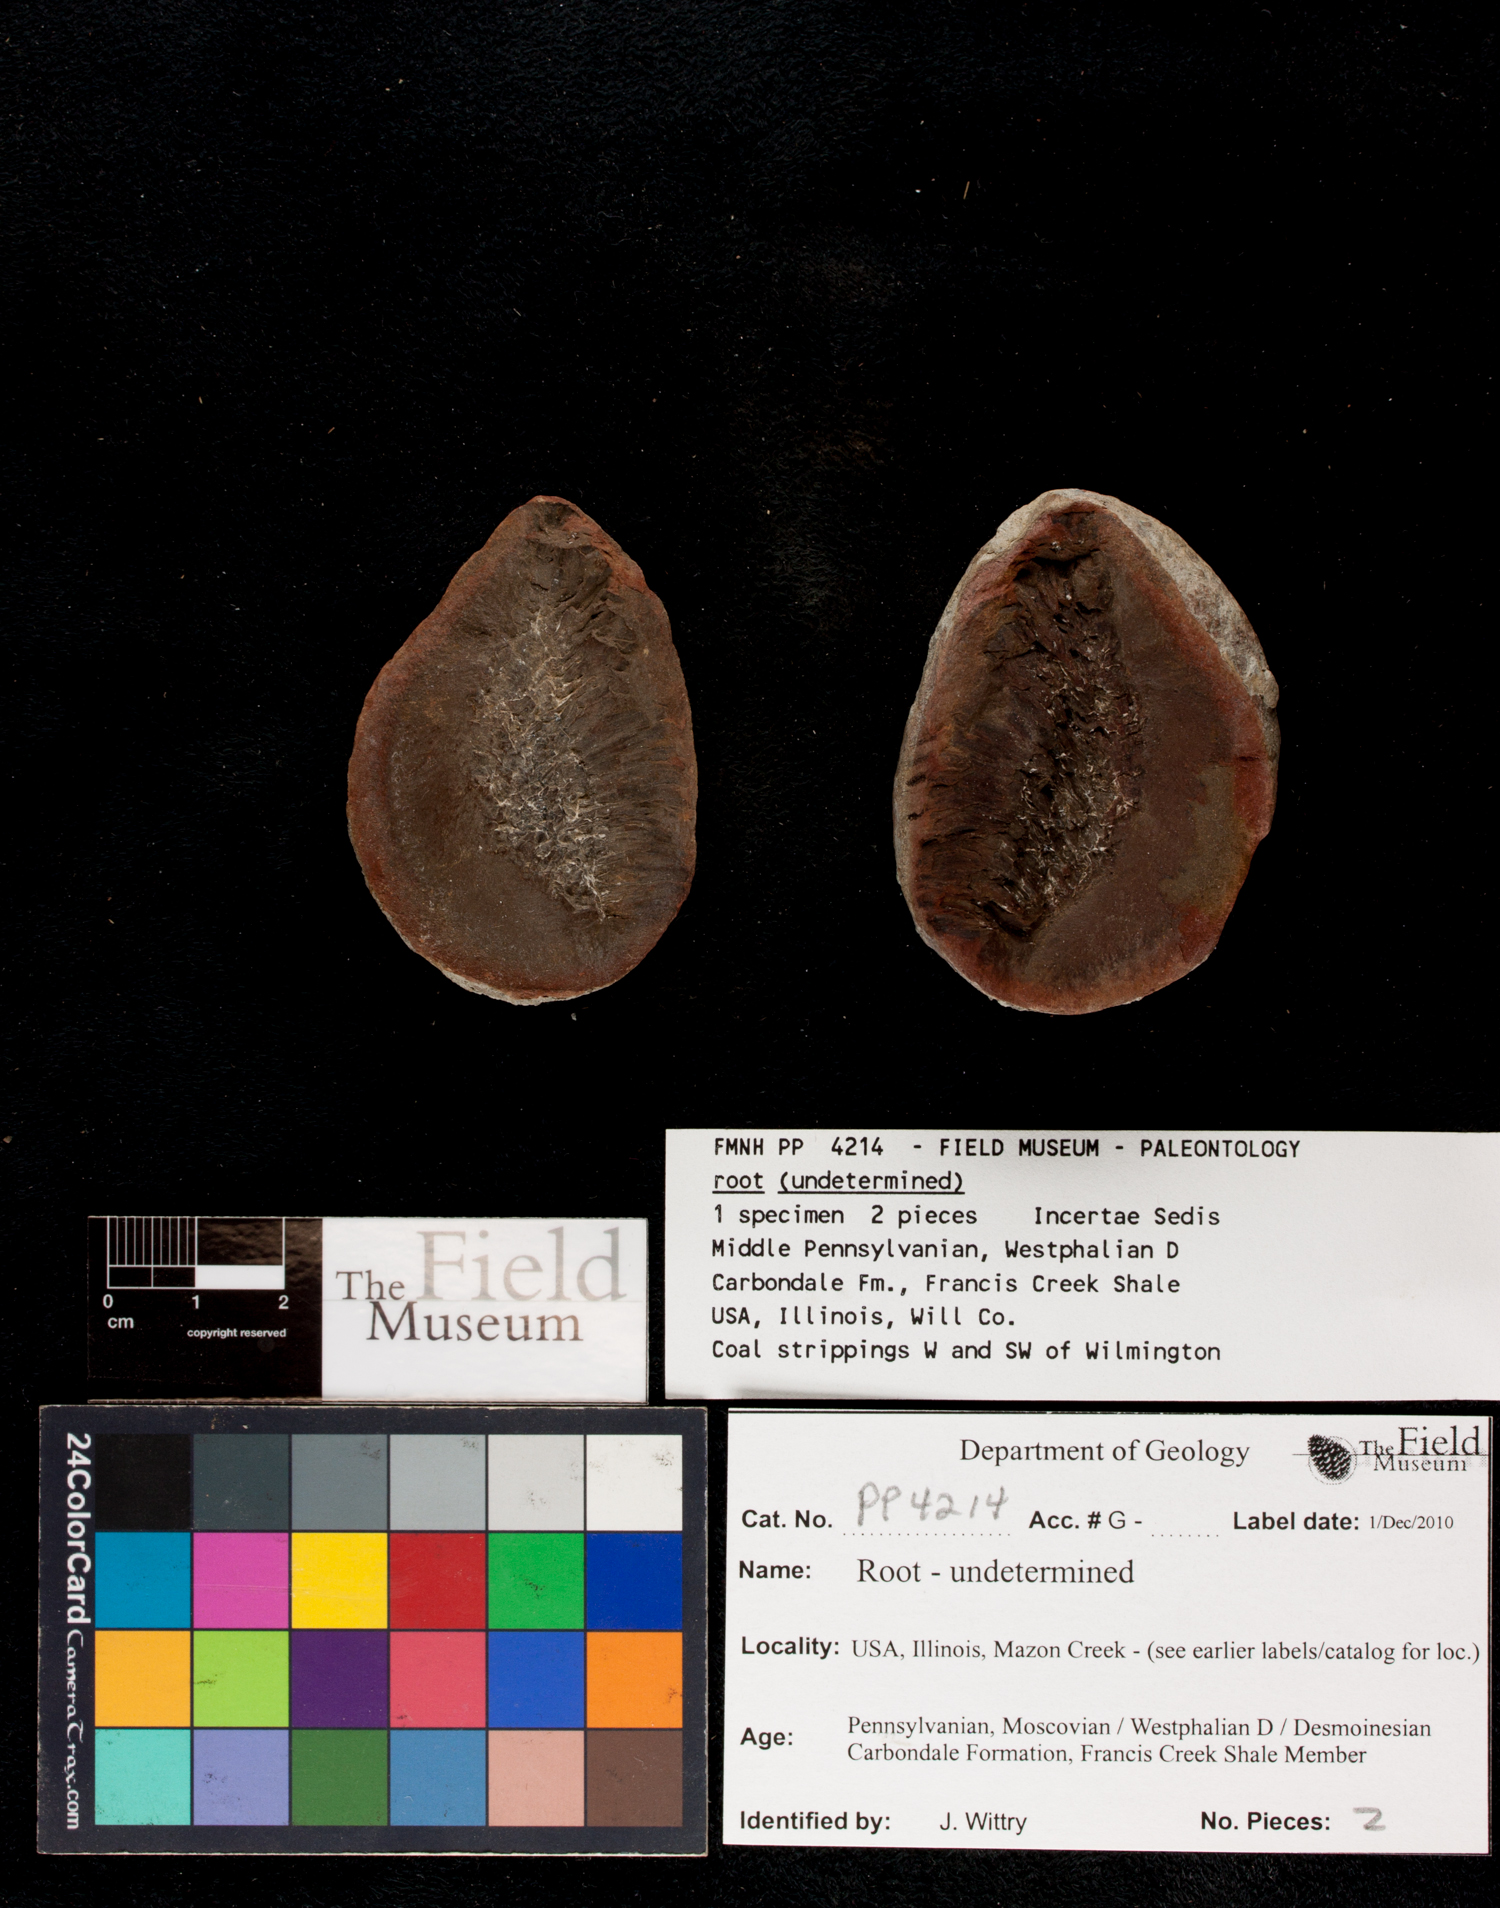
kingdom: Plantae
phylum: Tracheophyta
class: Polypodiopsida
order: Equisetales
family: Calamitaceae
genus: Radicites
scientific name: Radicites
